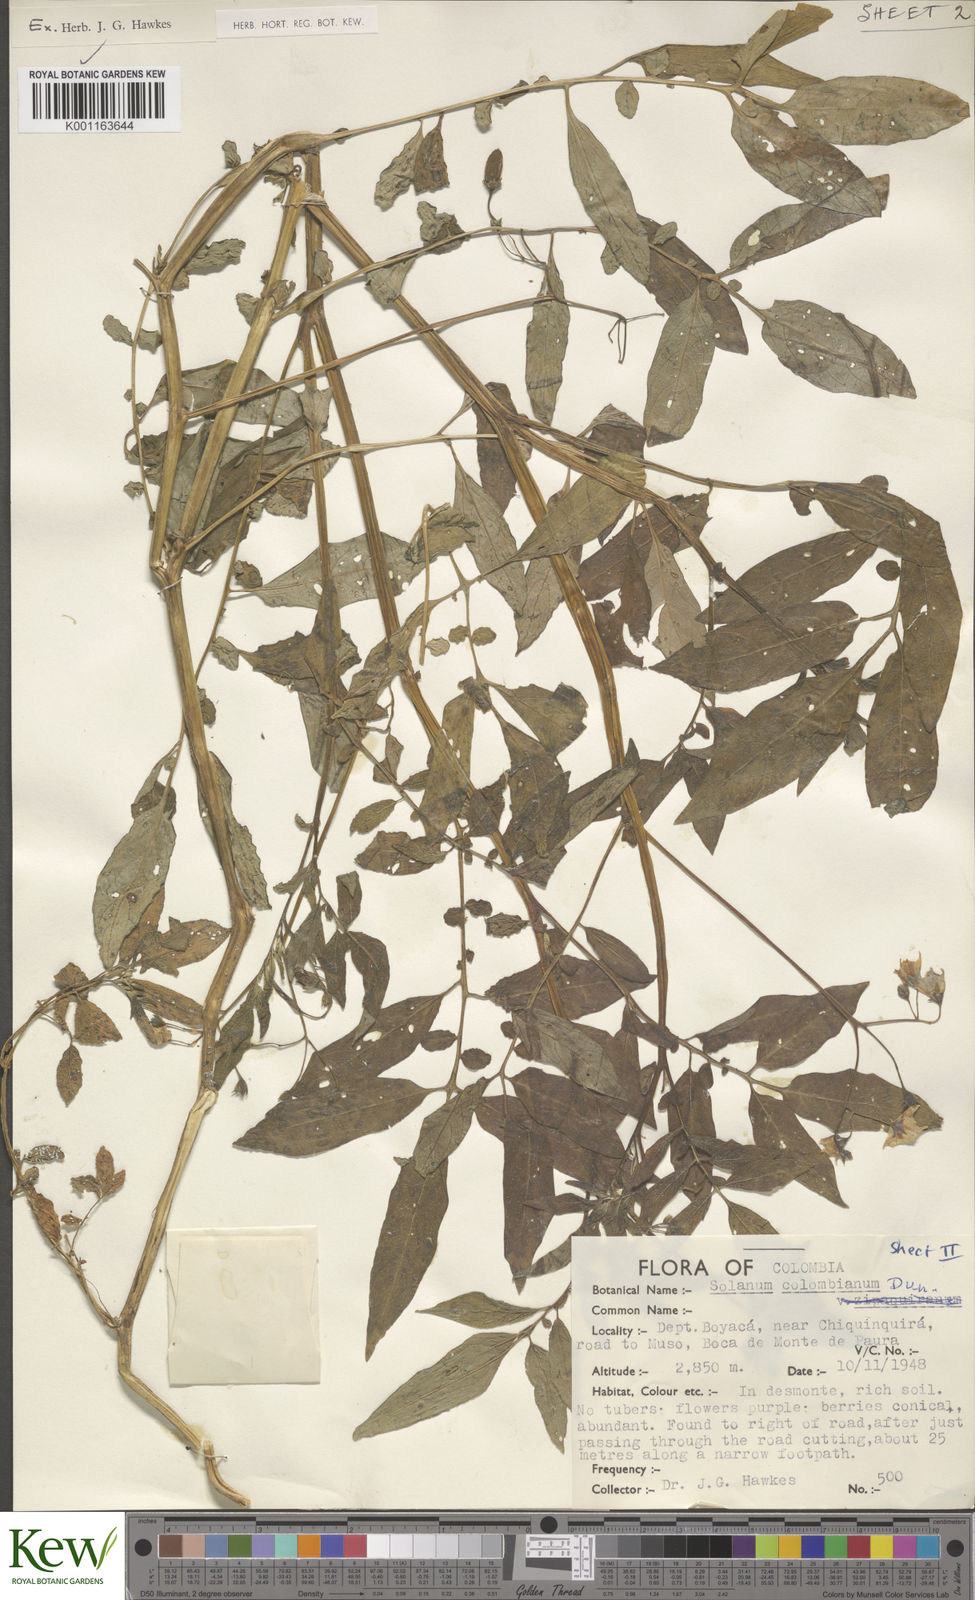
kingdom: Plantae
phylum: Tracheophyta
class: Magnoliopsida
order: Solanales
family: Solanaceae
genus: Solanum
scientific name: Solanum colombianum
